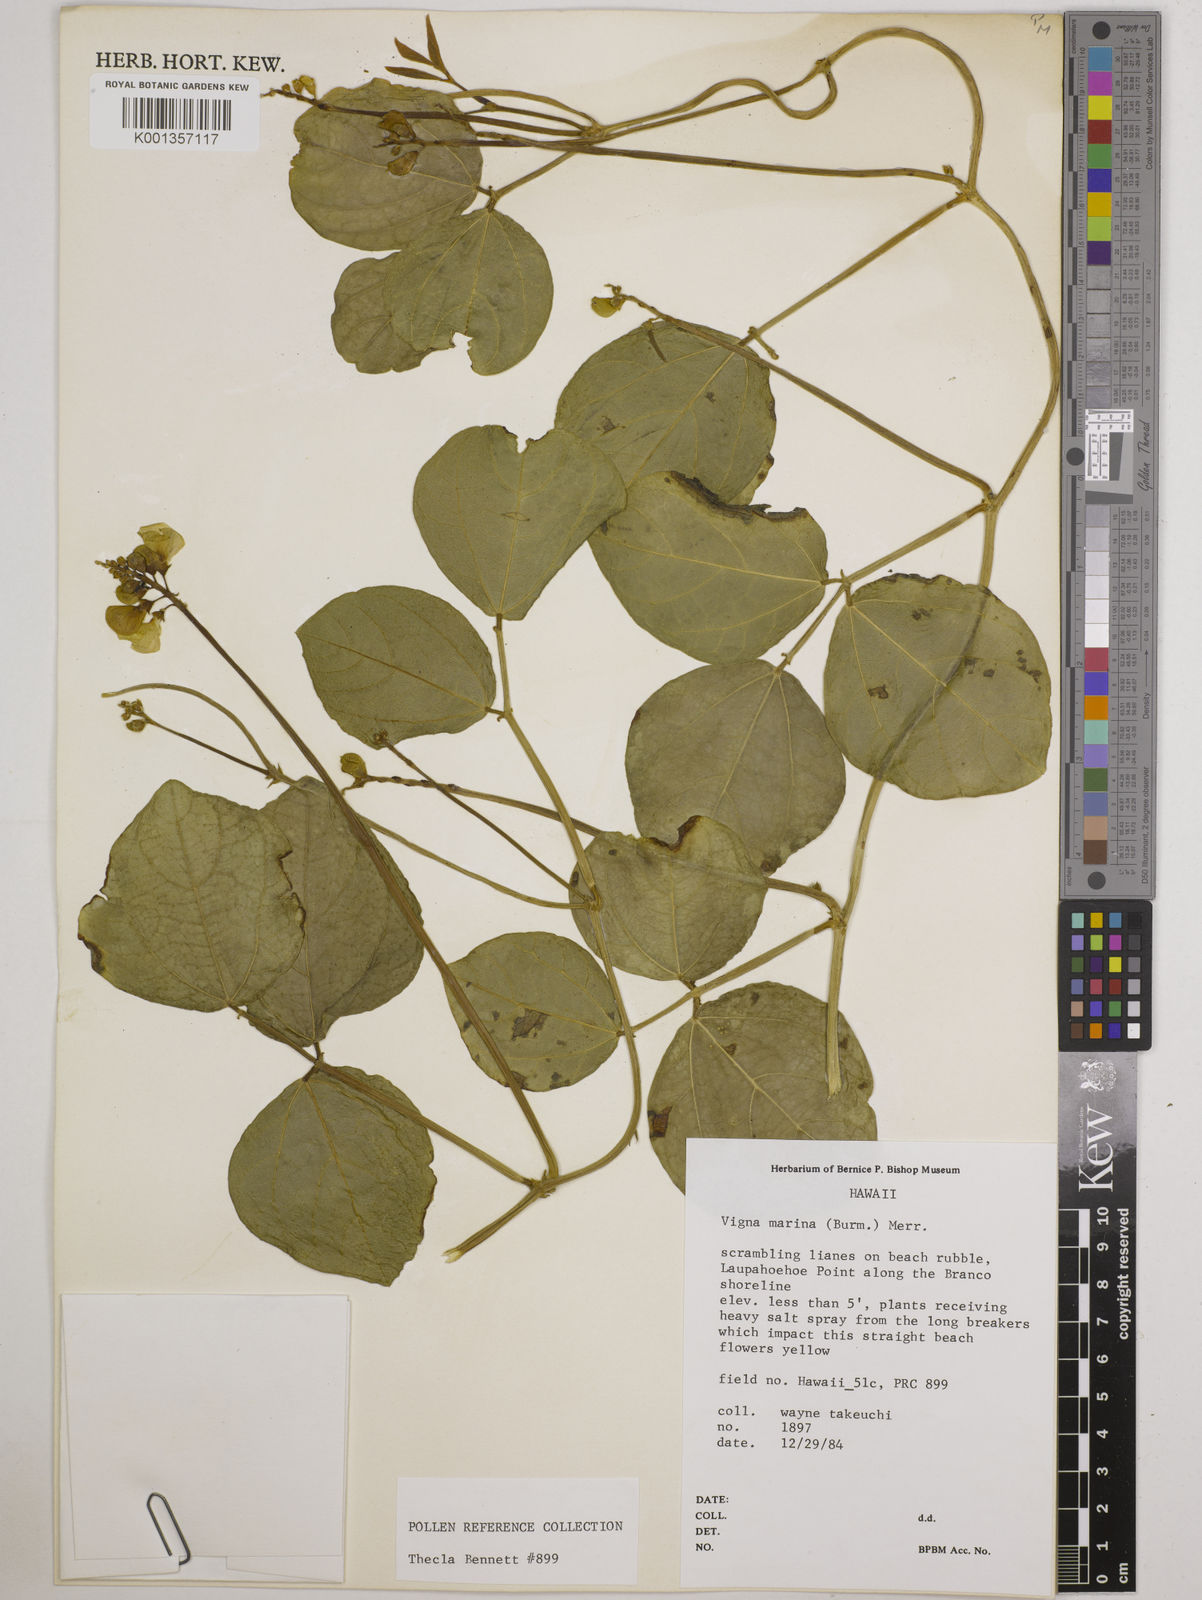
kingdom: Plantae
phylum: Tracheophyta
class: Magnoliopsida
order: Fabales
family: Fabaceae
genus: Vigna
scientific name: Vigna marina
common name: Dune-bean
